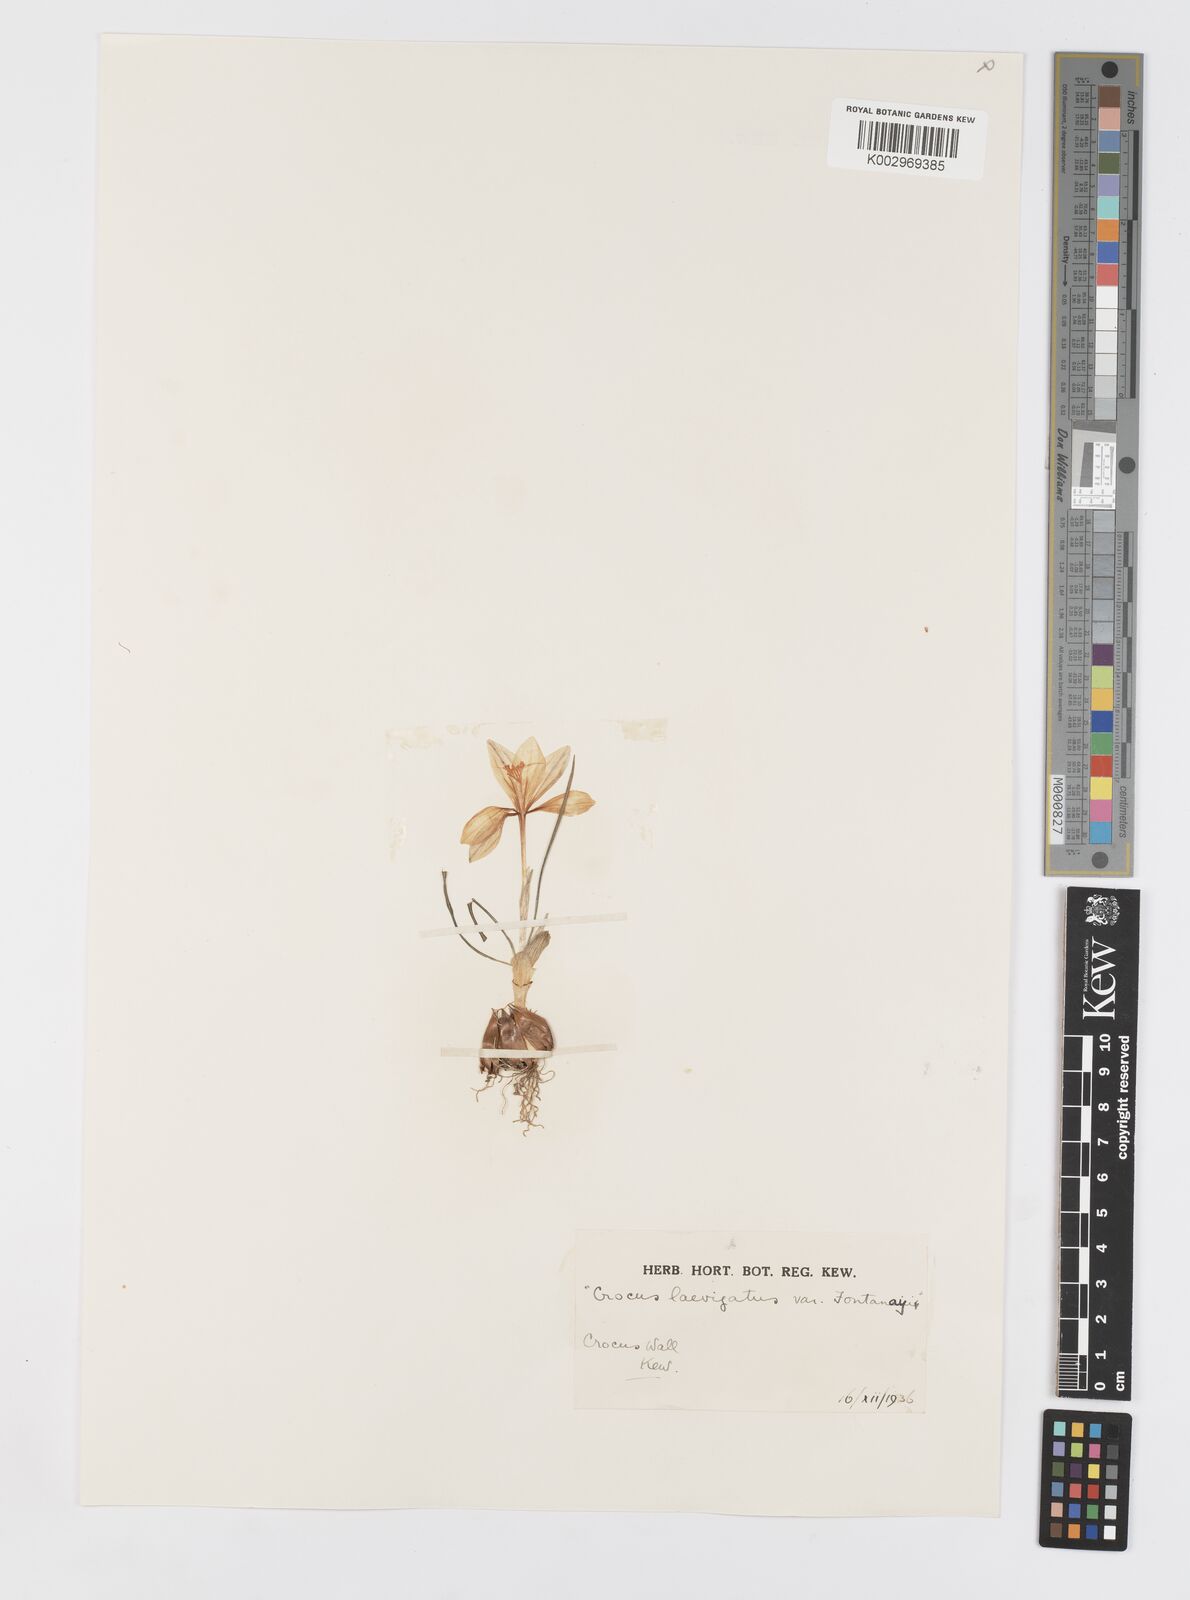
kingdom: Plantae
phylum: Tracheophyta
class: Liliopsida
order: Asparagales
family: Iridaceae
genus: Crocus
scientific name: Crocus laevigatus
